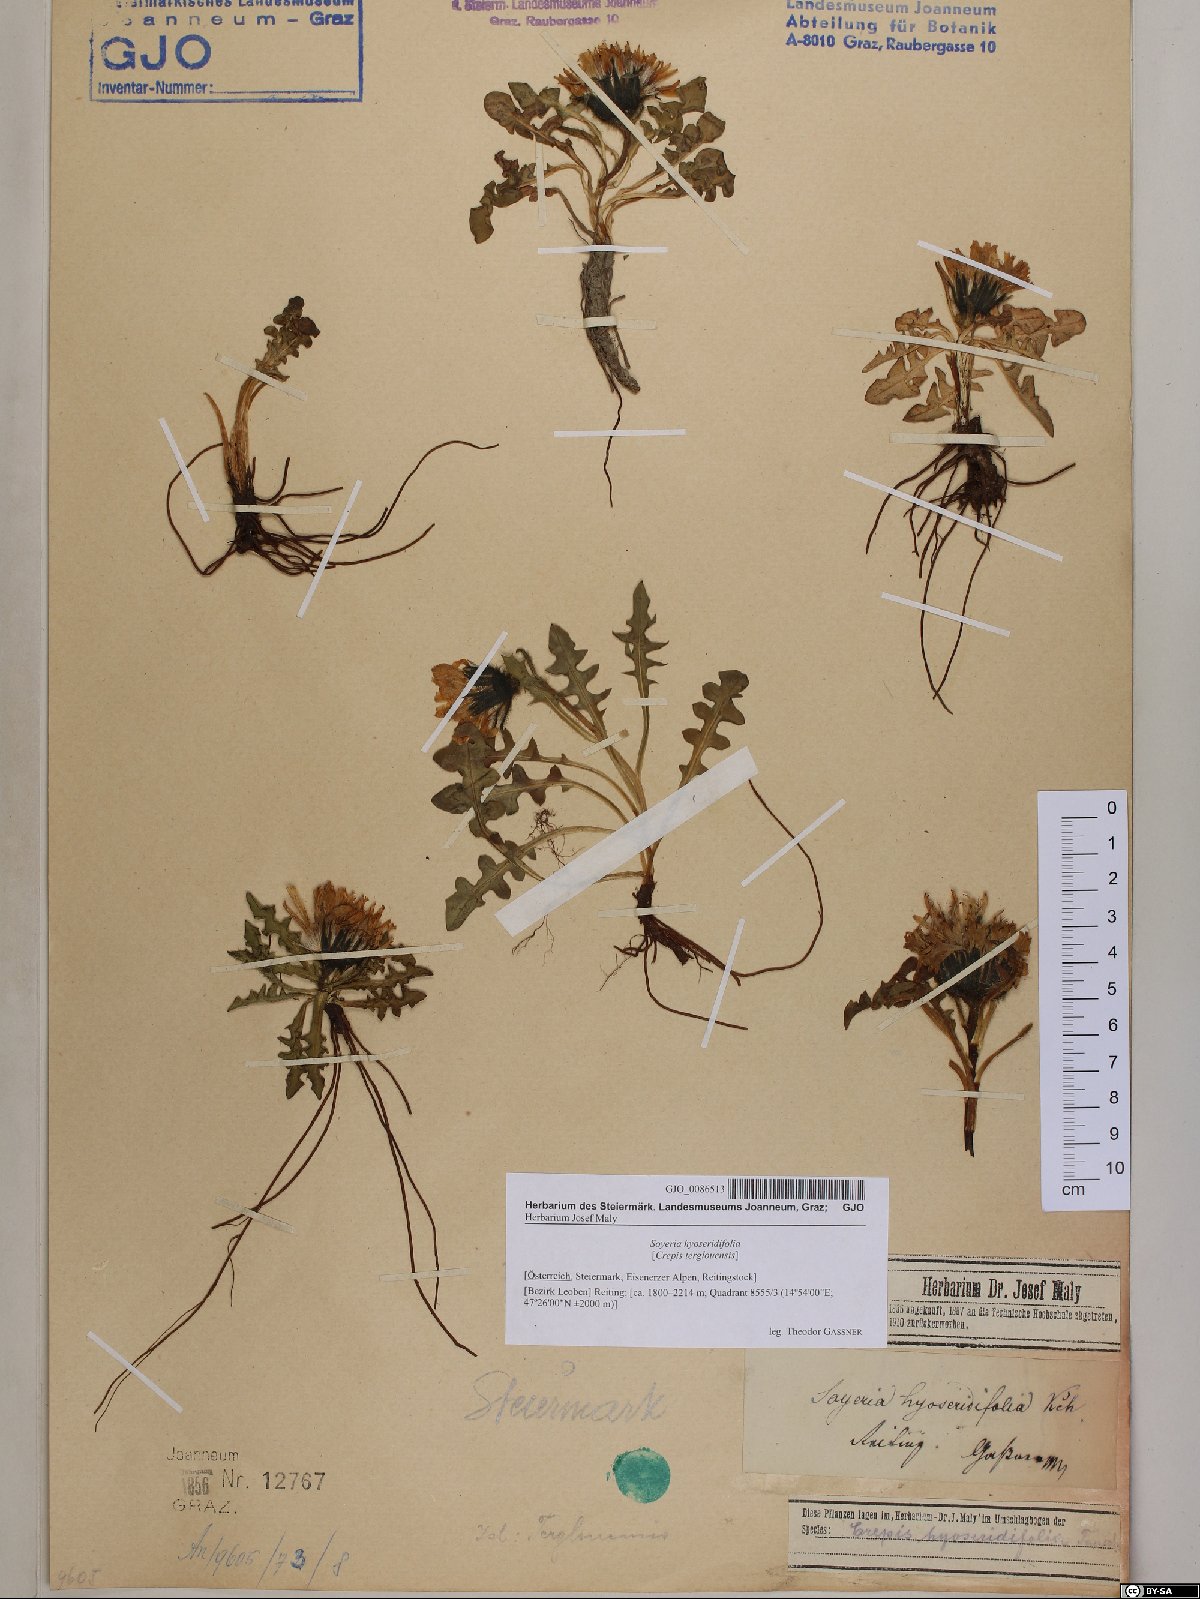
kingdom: Plantae
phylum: Tracheophyta
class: Magnoliopsida
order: Asterales
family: Asteraceae
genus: Crepis
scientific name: Crepis terglouensis
